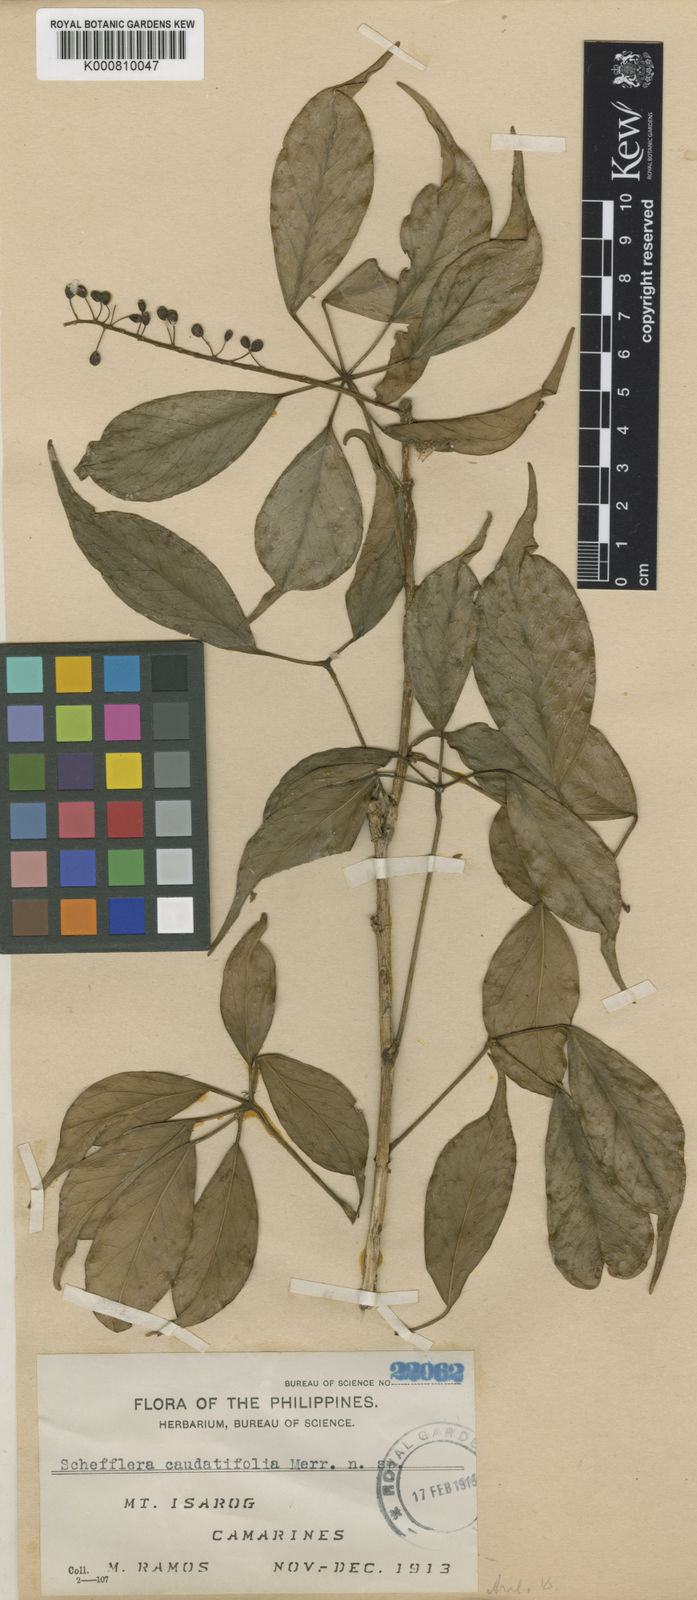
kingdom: Plantae
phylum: Tracheophyta
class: Magnoliopsida
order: Apiales
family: Araliaceae
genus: Heptapleurum
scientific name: Heptapleurum caudatifolium
